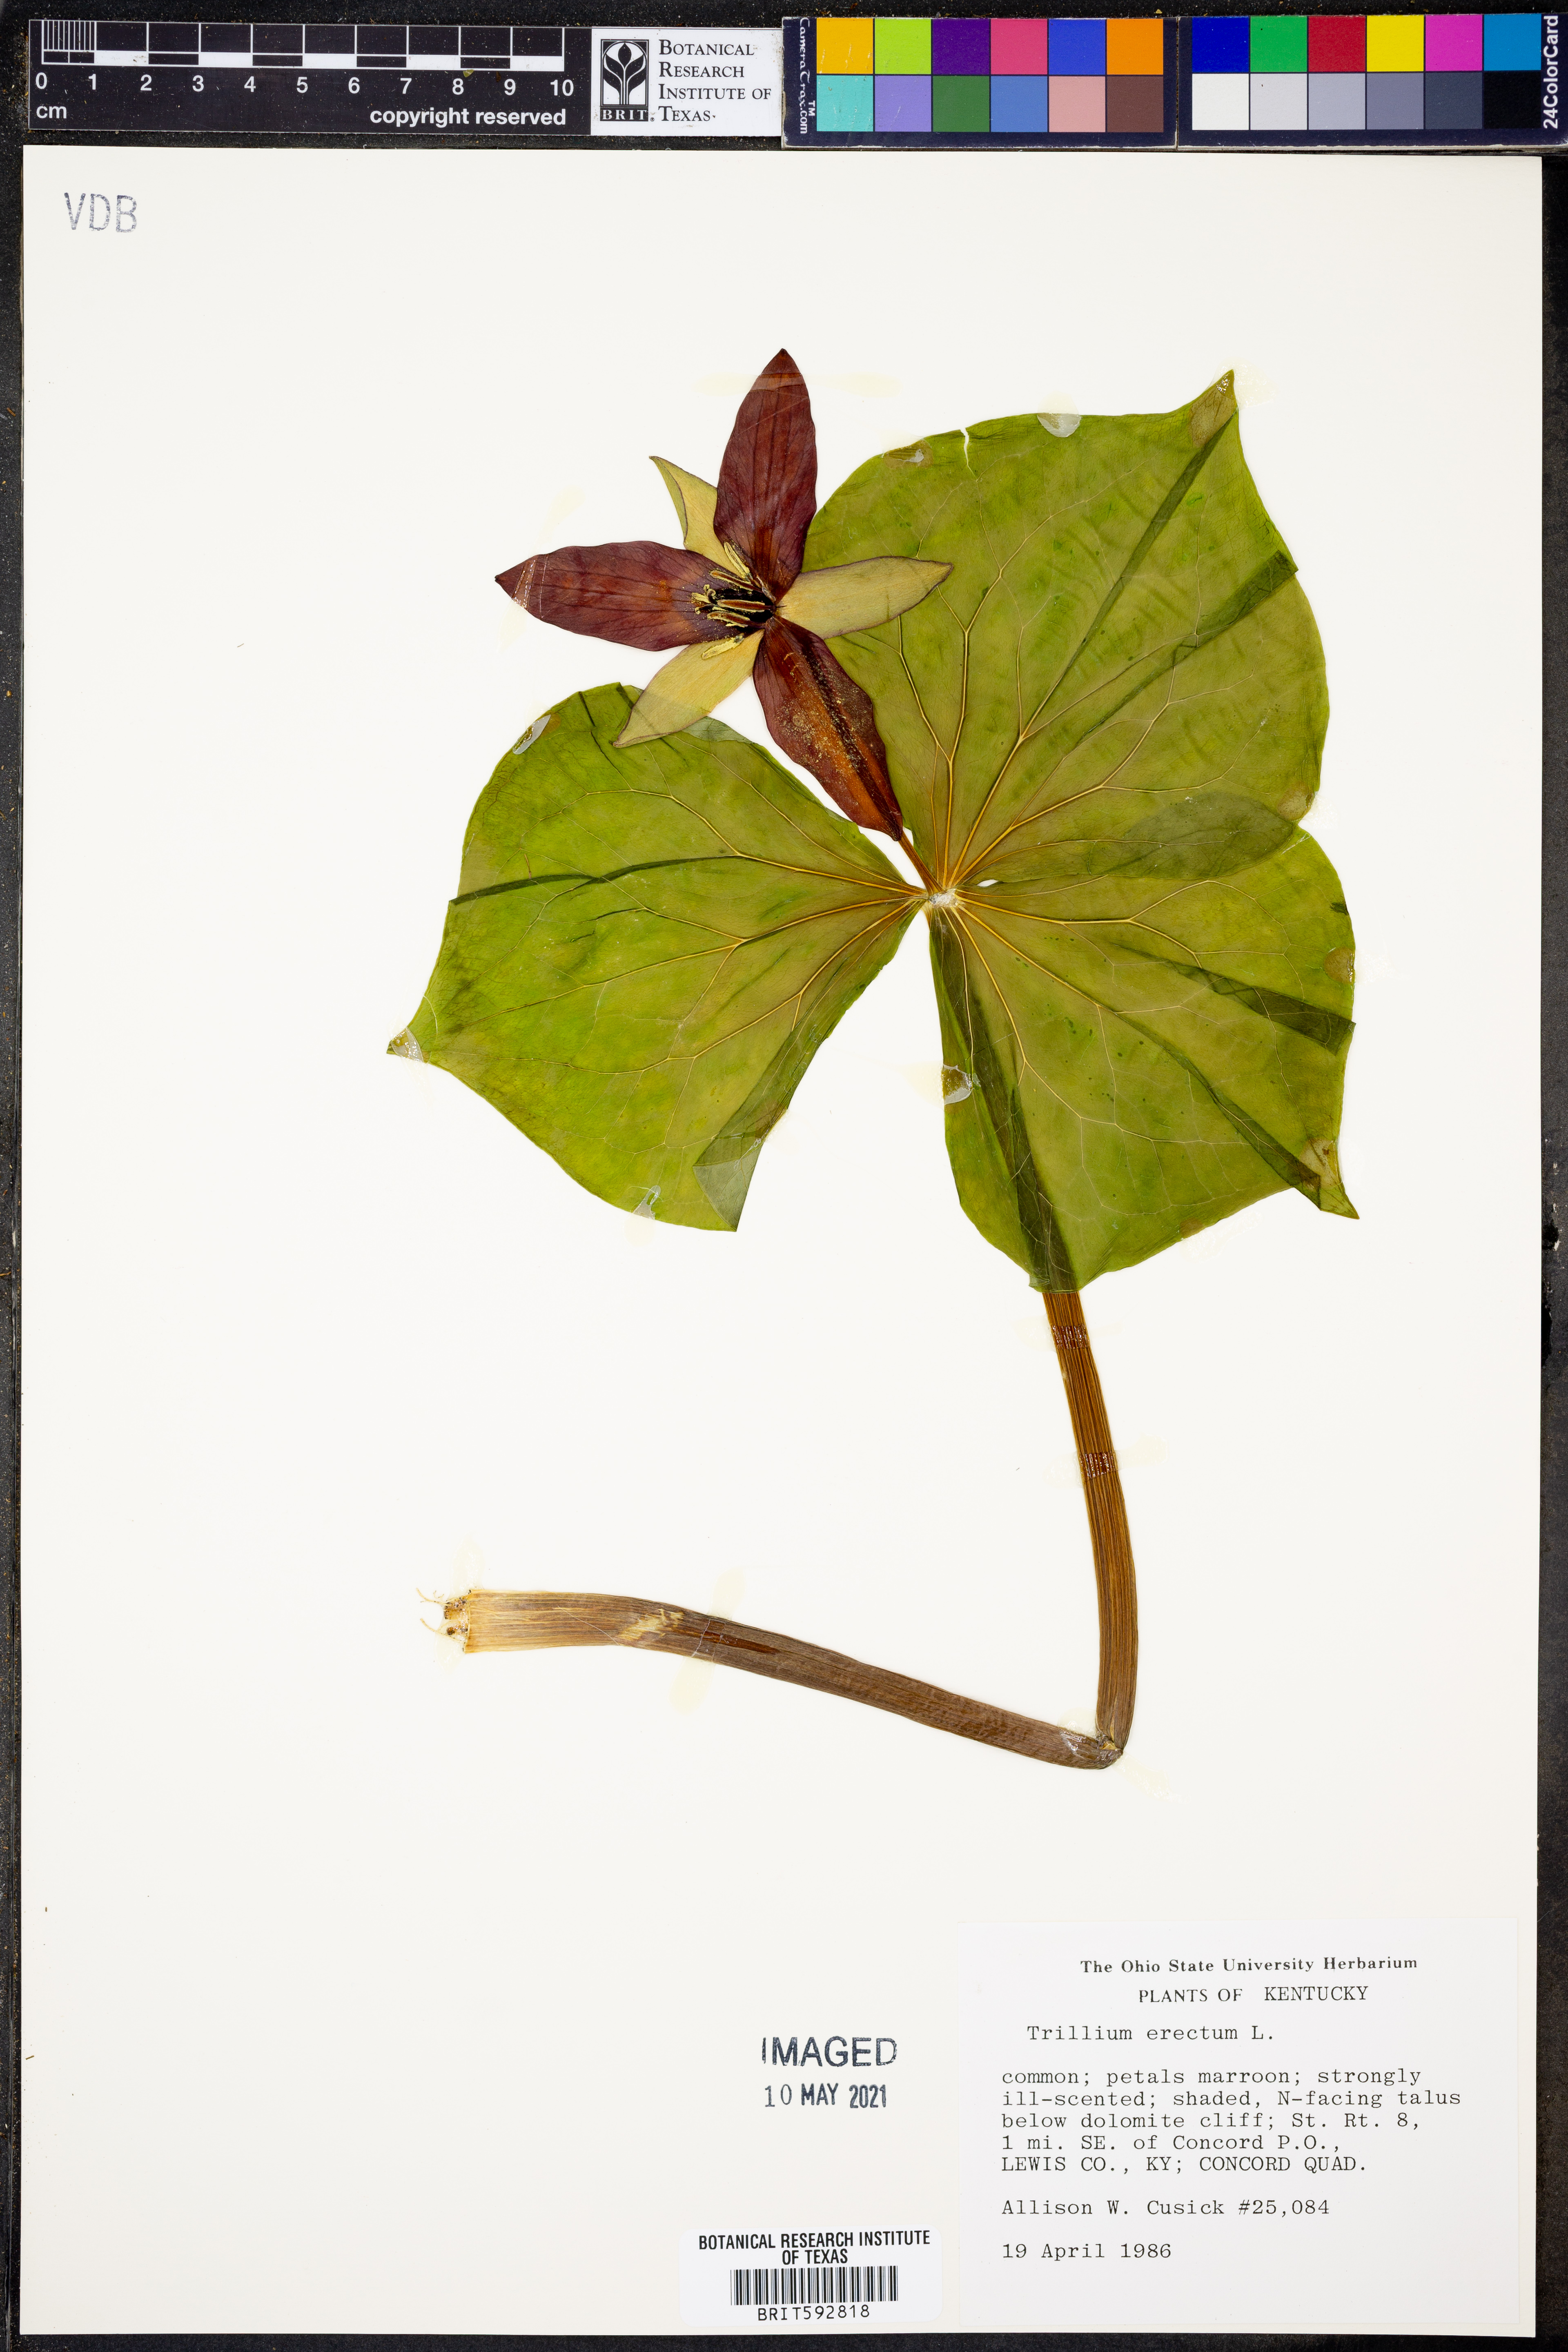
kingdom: Plantae
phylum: Tracheophyta
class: Liliopsida
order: Liliales
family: Melanthiaceae
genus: Trillium
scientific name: Trillium erectum
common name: Purple trillium
